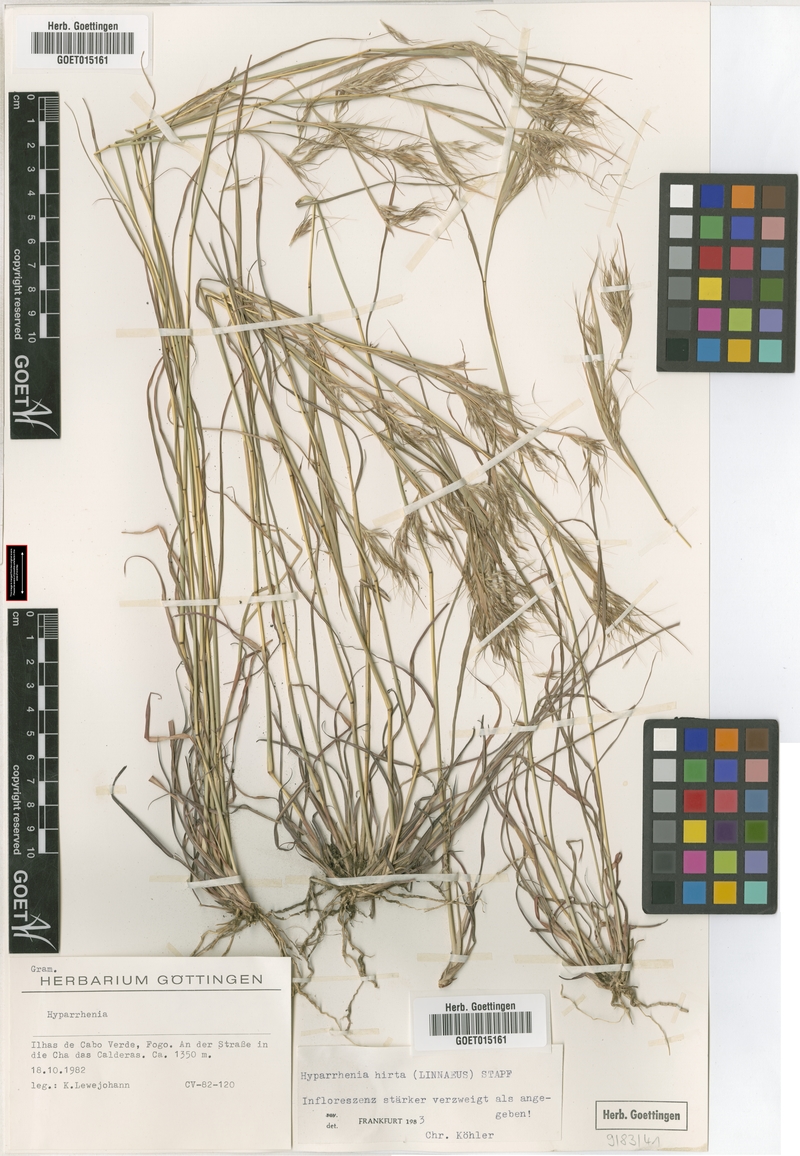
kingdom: Plantae
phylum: Tracheophyta
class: Liliopsida
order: Poales
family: Poaceae
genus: Hyparrhenia
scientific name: Hyparrhenia hirta
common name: Thatching grass
